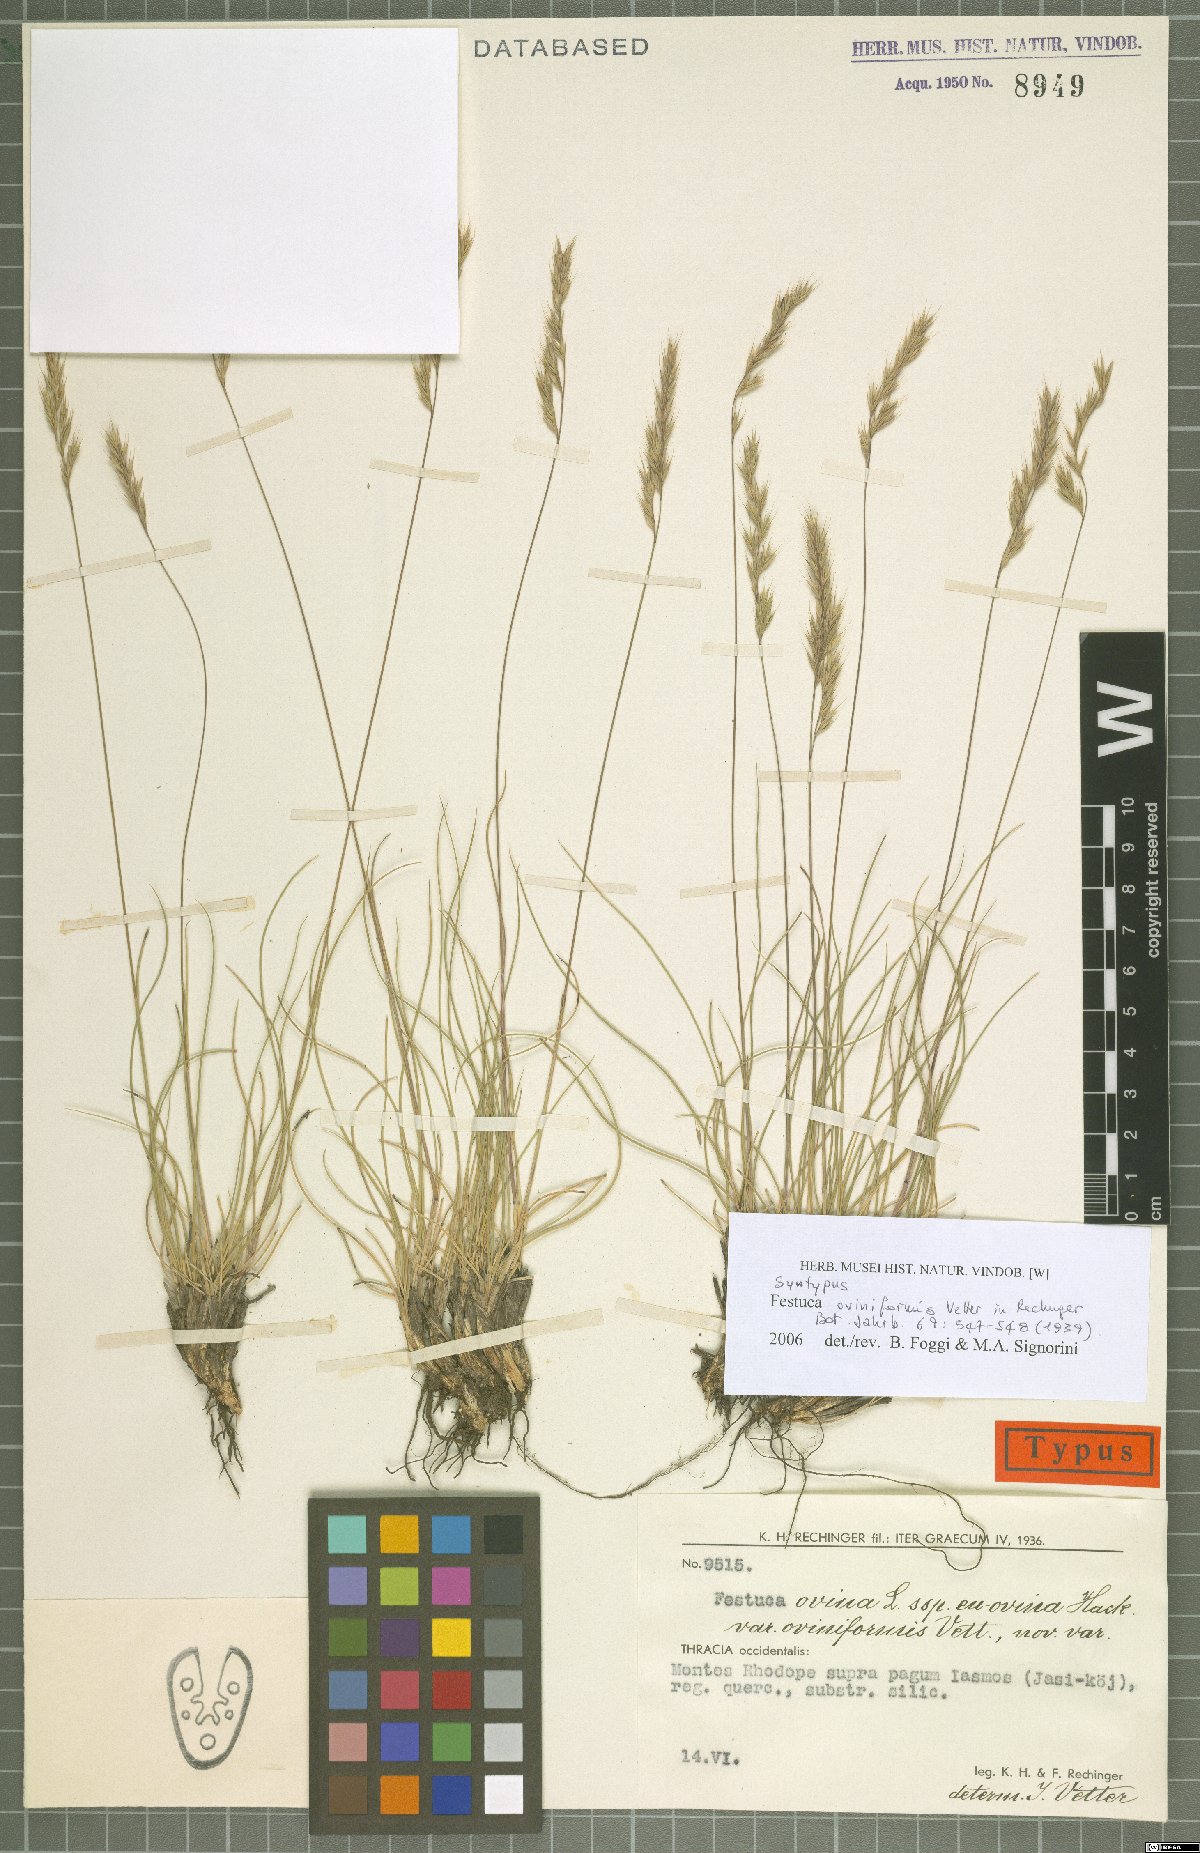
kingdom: Plantae
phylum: Tracheophyta
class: Liliopsida
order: Poales
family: Poaceae
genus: Festuca
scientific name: Festuca oviniformis
